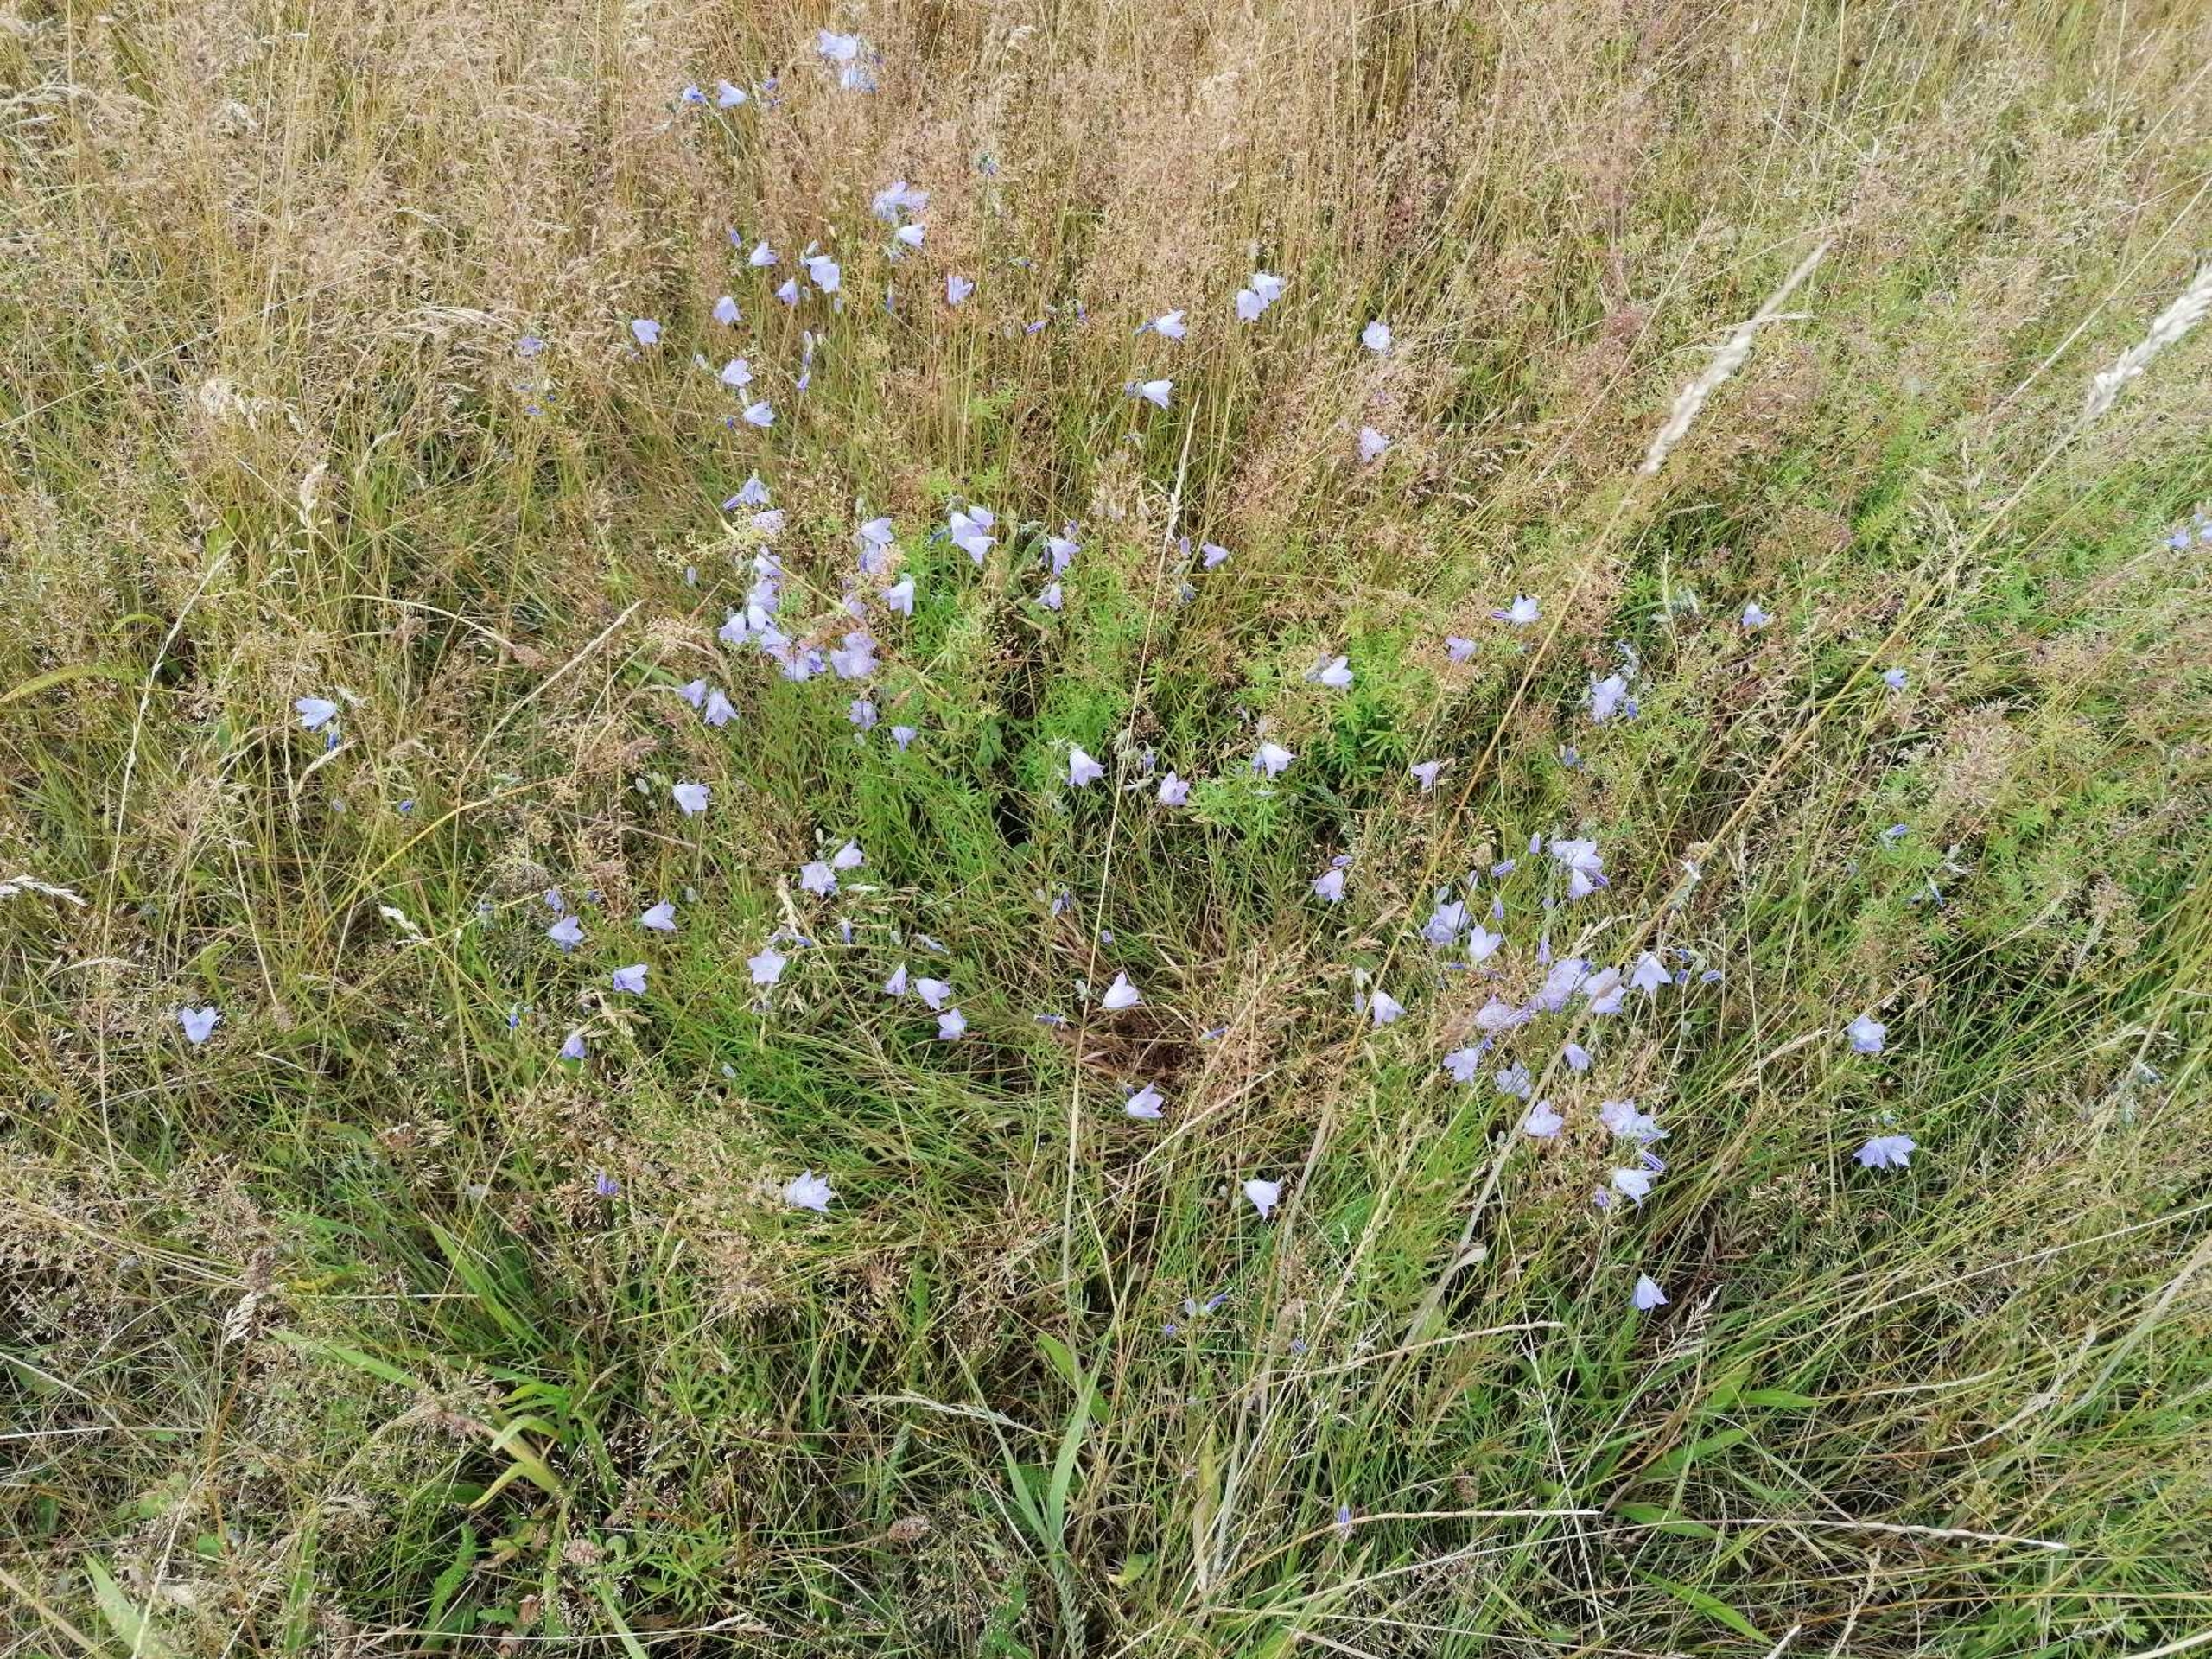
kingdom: Plantae
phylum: Tracheophyta
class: Magnoliopsida
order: Asterales
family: Campanulaceae
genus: Campanula
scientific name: Campanula rotundifolia
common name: Liden klokke
